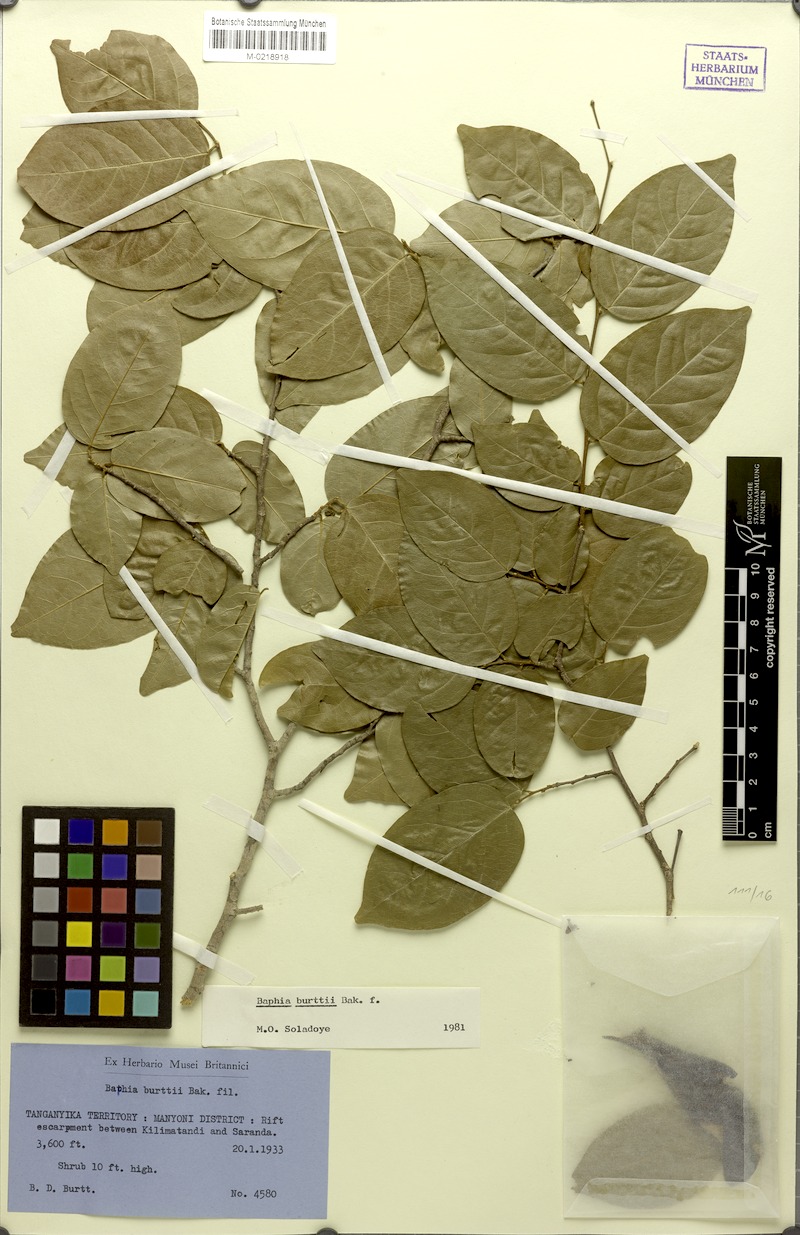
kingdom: Plantae
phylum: Tracheophyta
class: Magnoliopsida
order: Fabales
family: Fabaceae
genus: Baphia
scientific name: Baphia burttii
